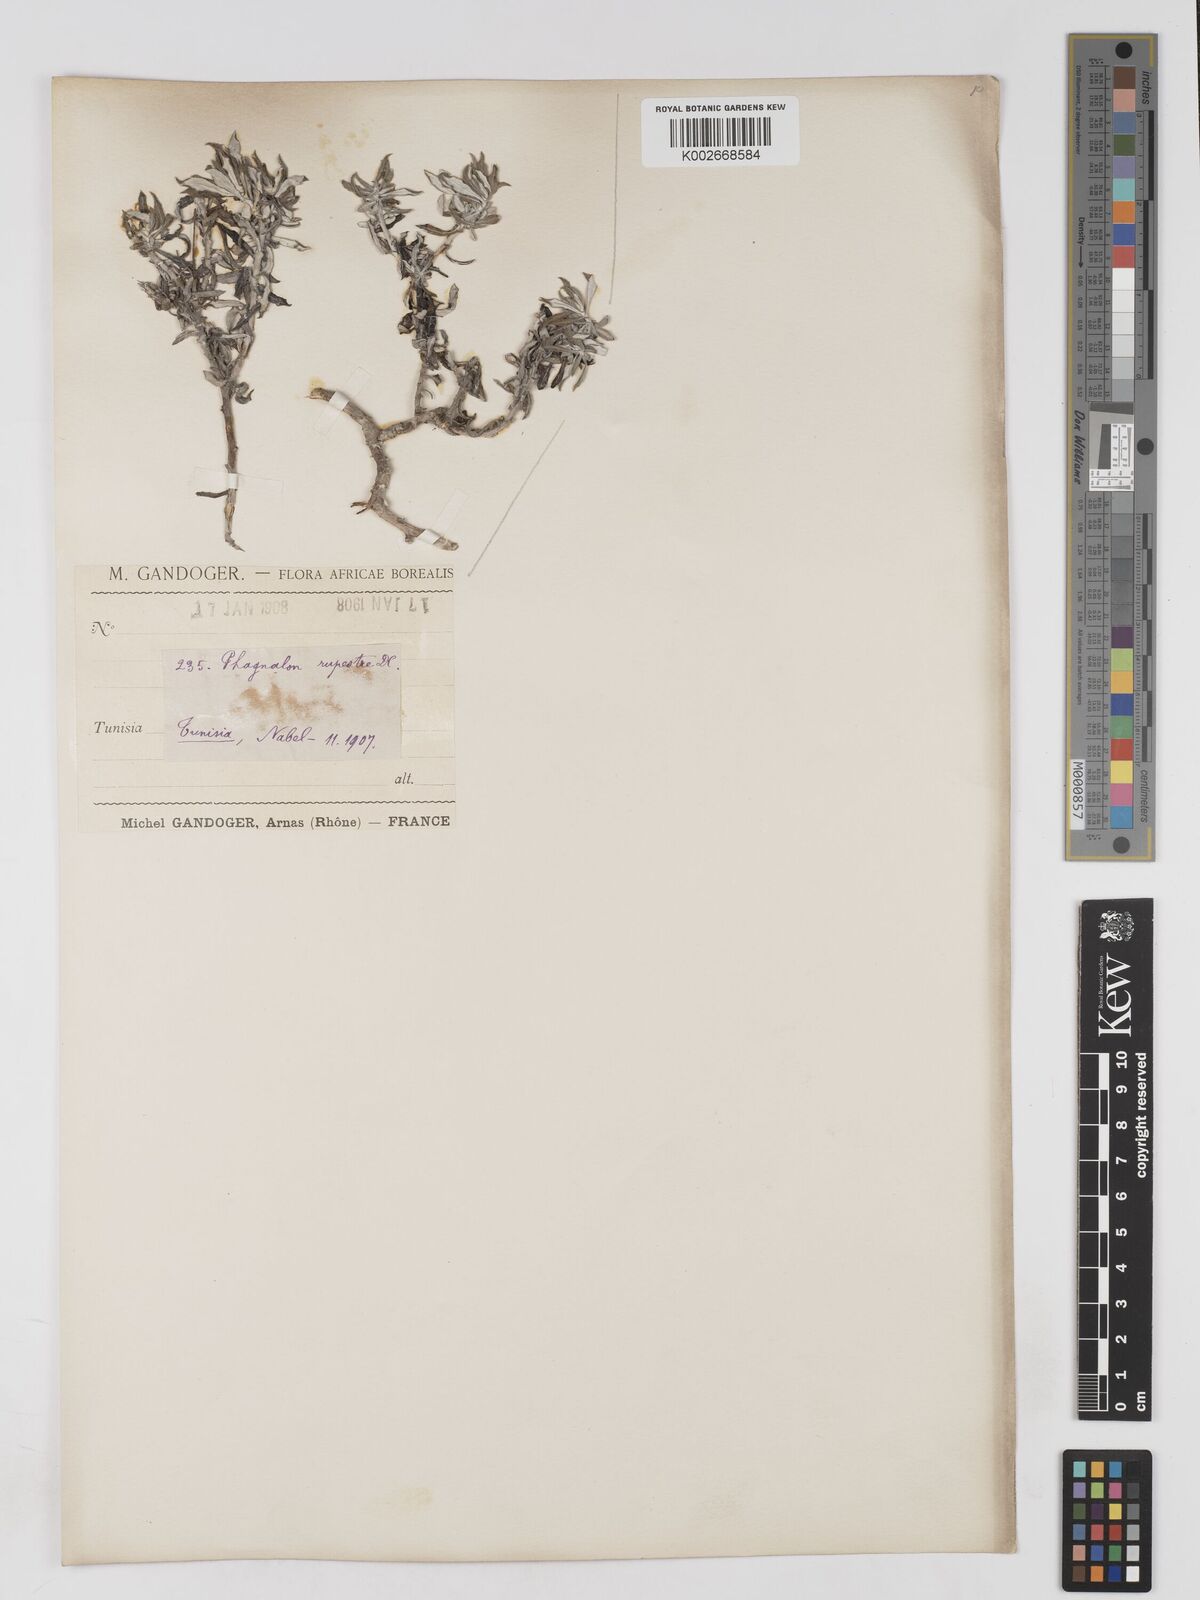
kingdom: Plantae
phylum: Tracheophyta
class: Magnoliopsida
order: Asterales
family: Asteraceae
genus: Phagnalon
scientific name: Phagnalon rupestre
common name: Rock phagnalon
